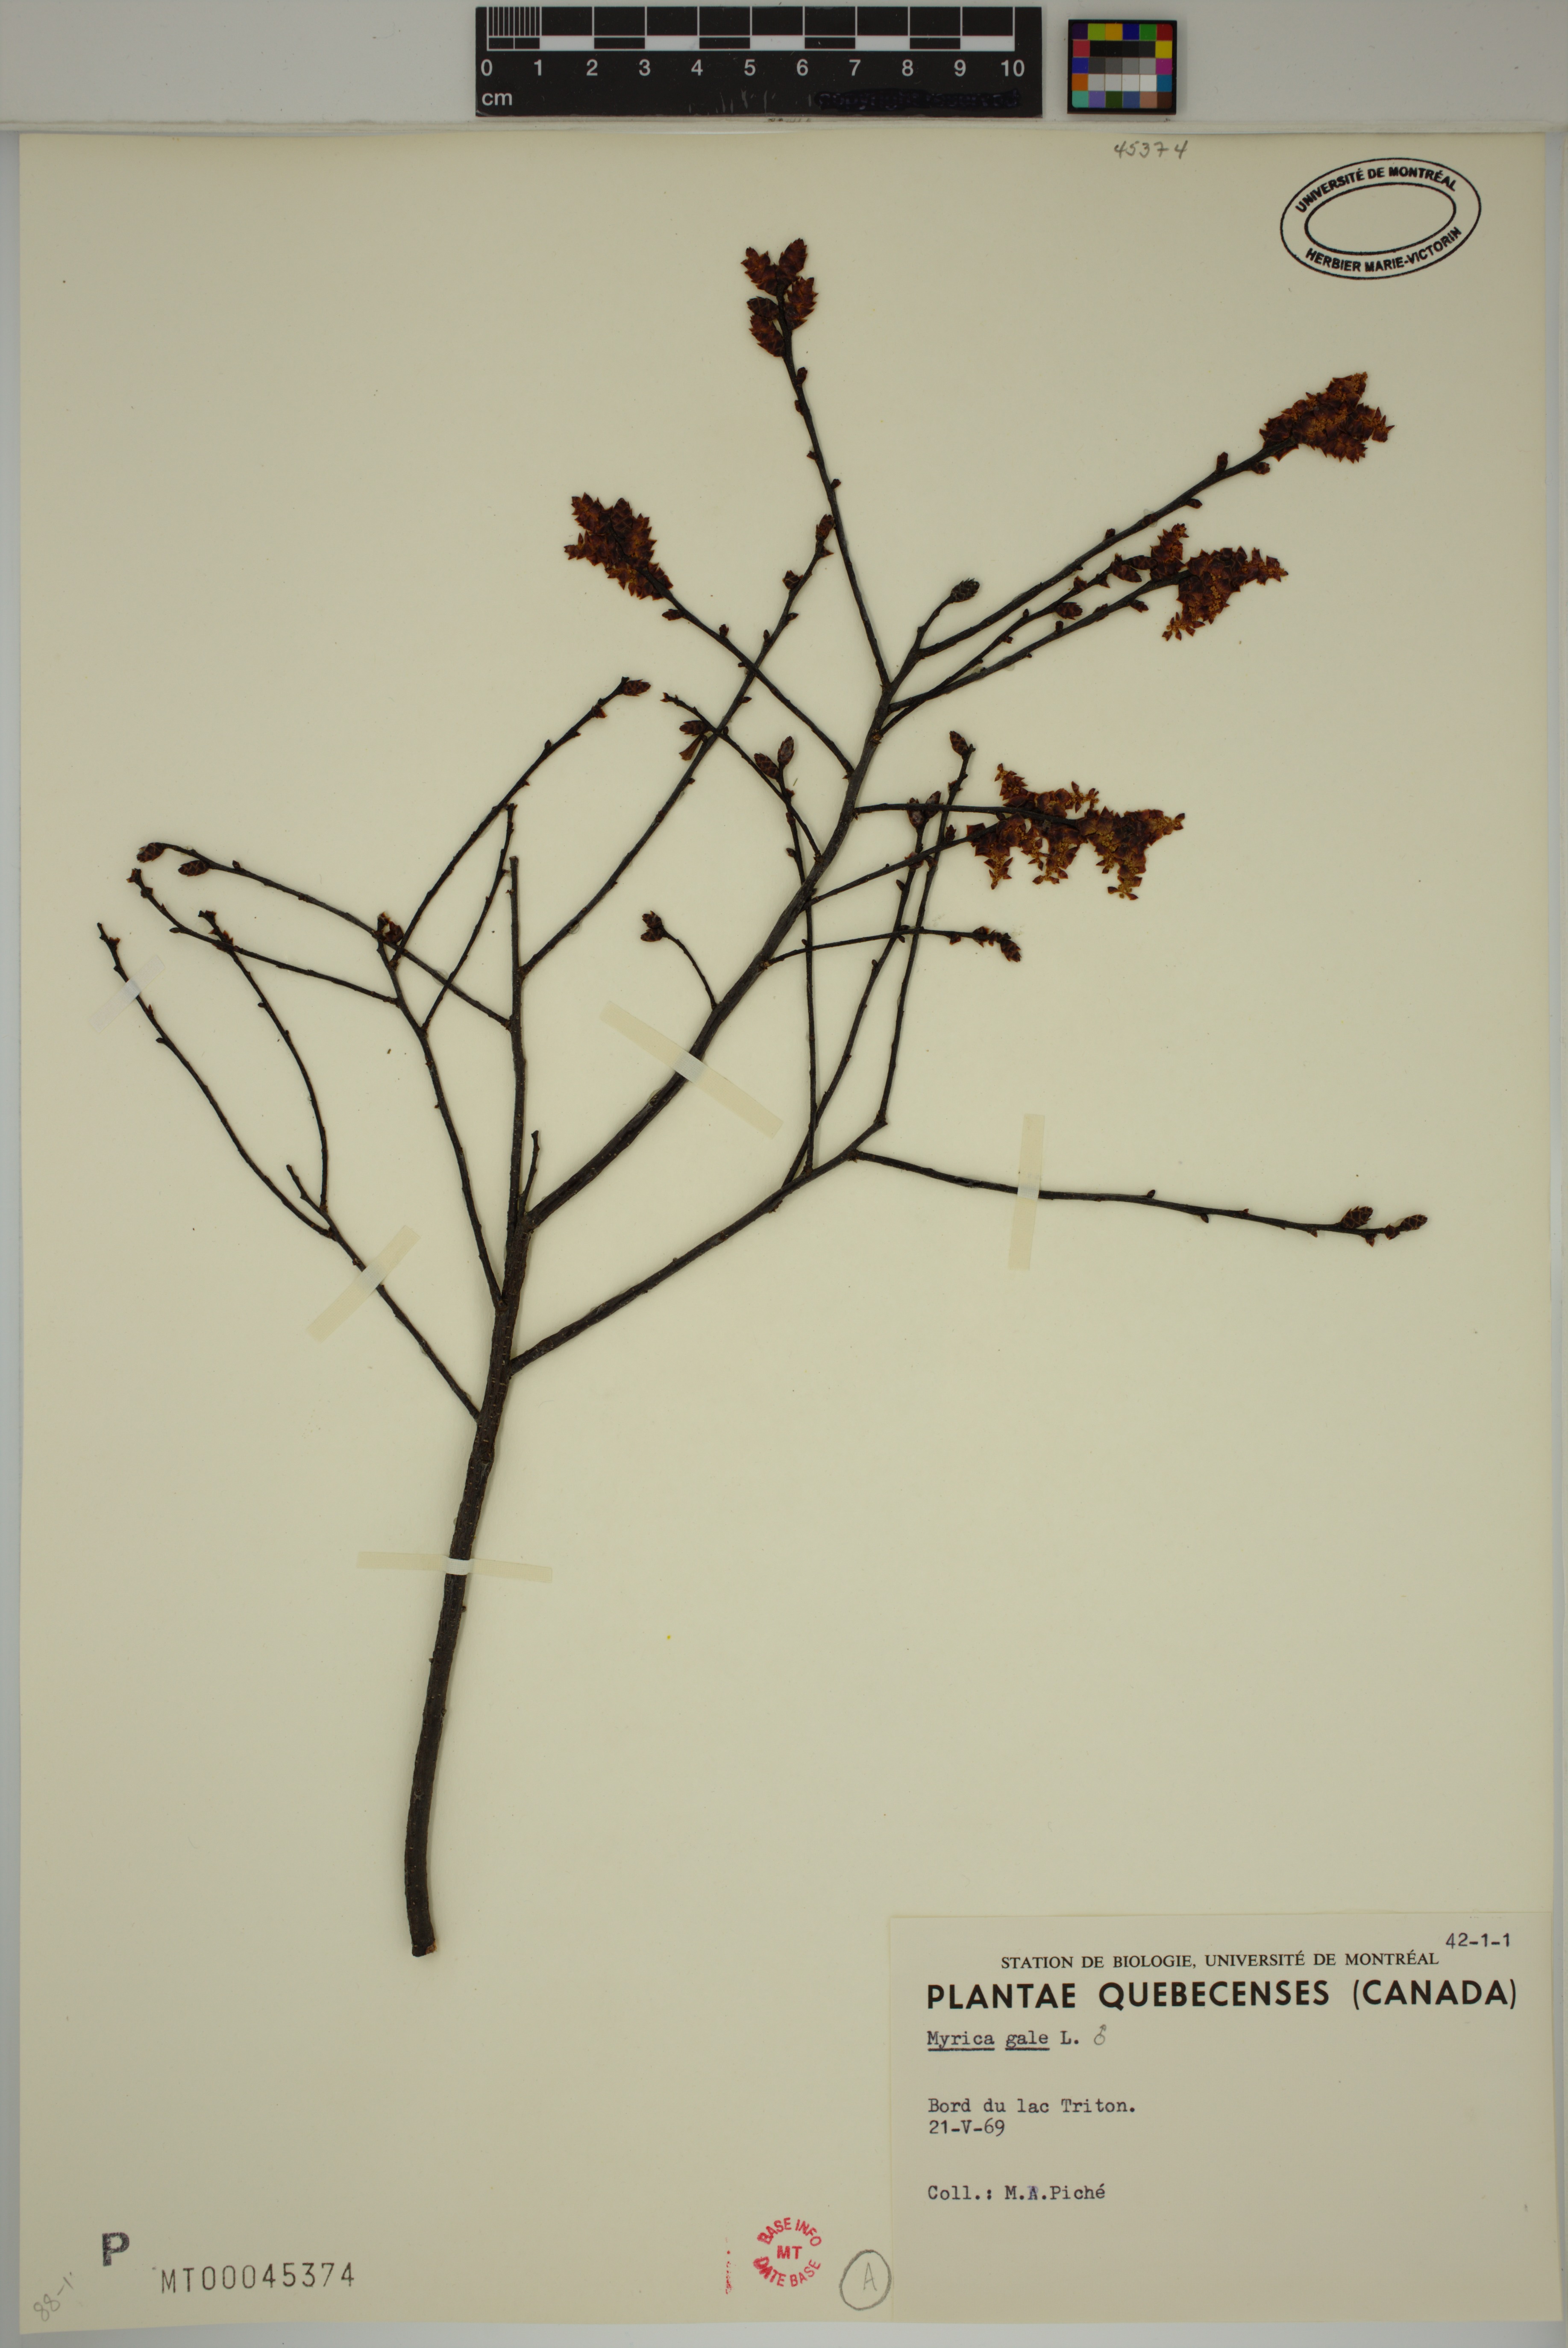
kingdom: Plantae
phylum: Tracheophyta
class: Magnoliopsida
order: Fagales
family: Myricaceae
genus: Myrica
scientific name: Myrica gale
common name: Sweet gale
